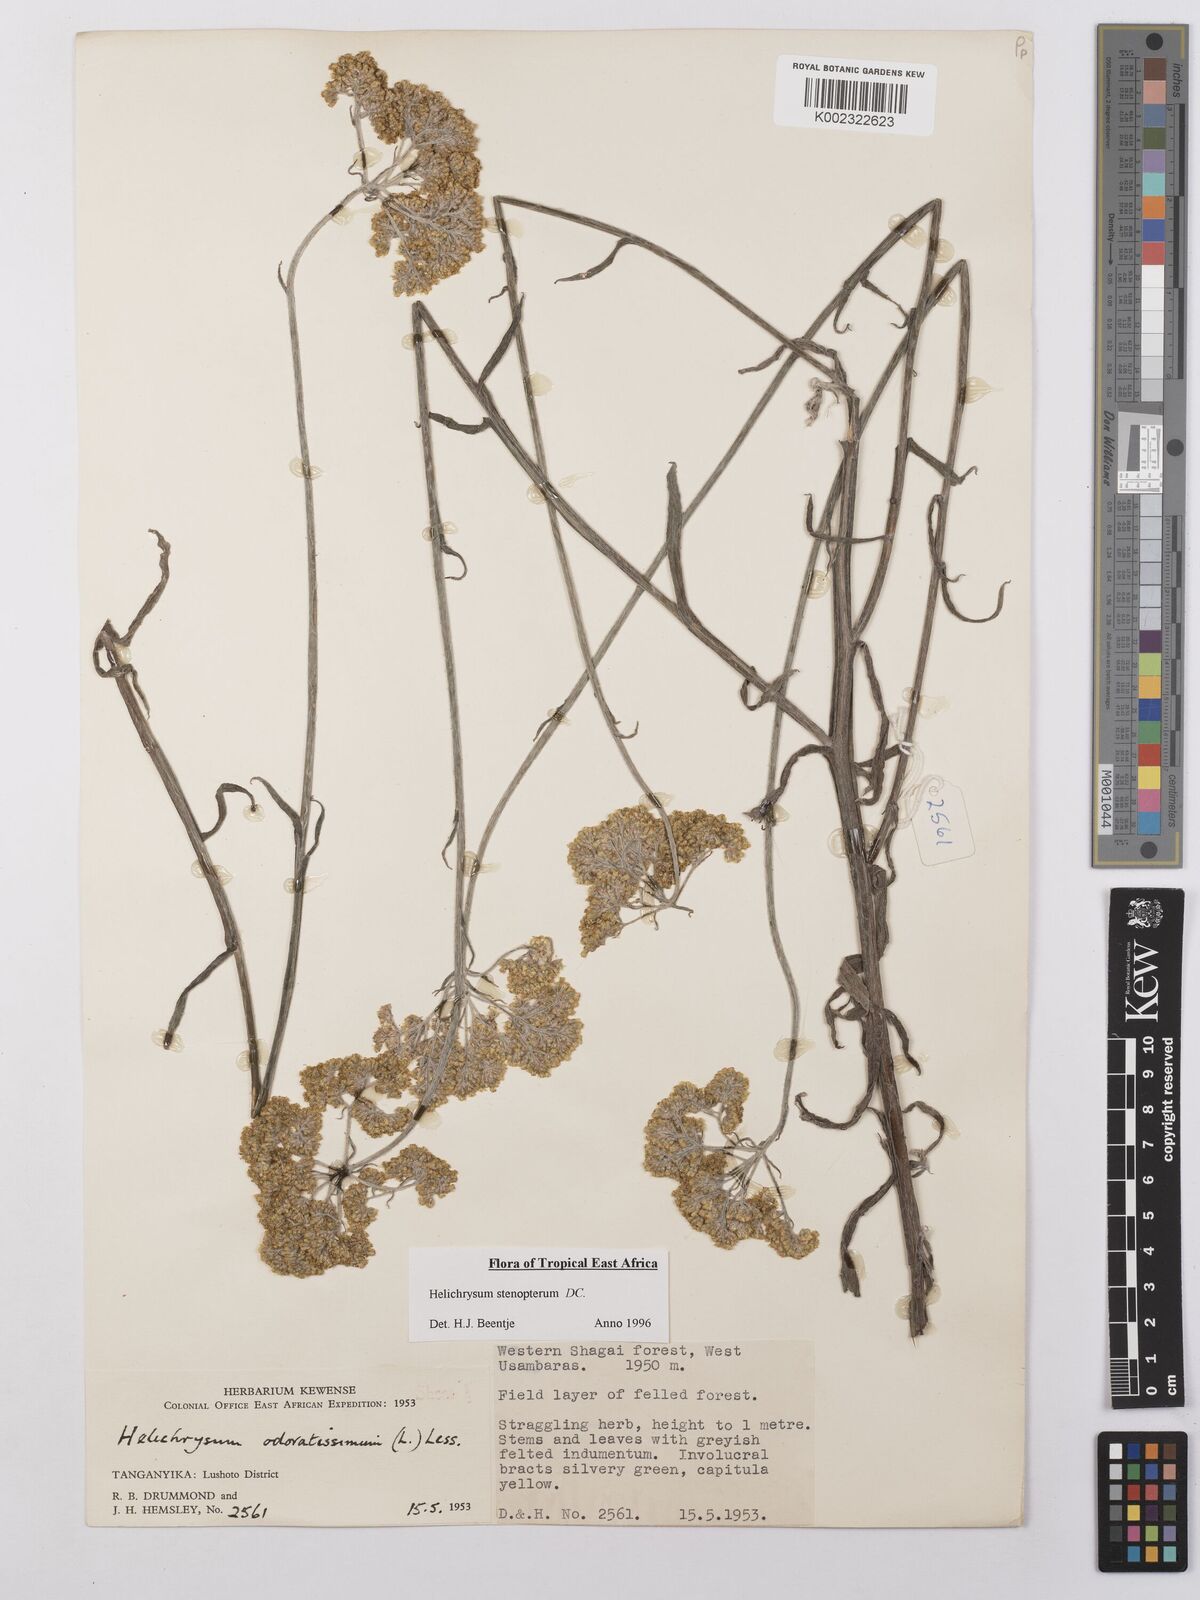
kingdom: Plantae
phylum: Tracheophyta
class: Magnoliopsida
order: Asterales
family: Asteraceae
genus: Helichrysum
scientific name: Helichrysum stenopterum
